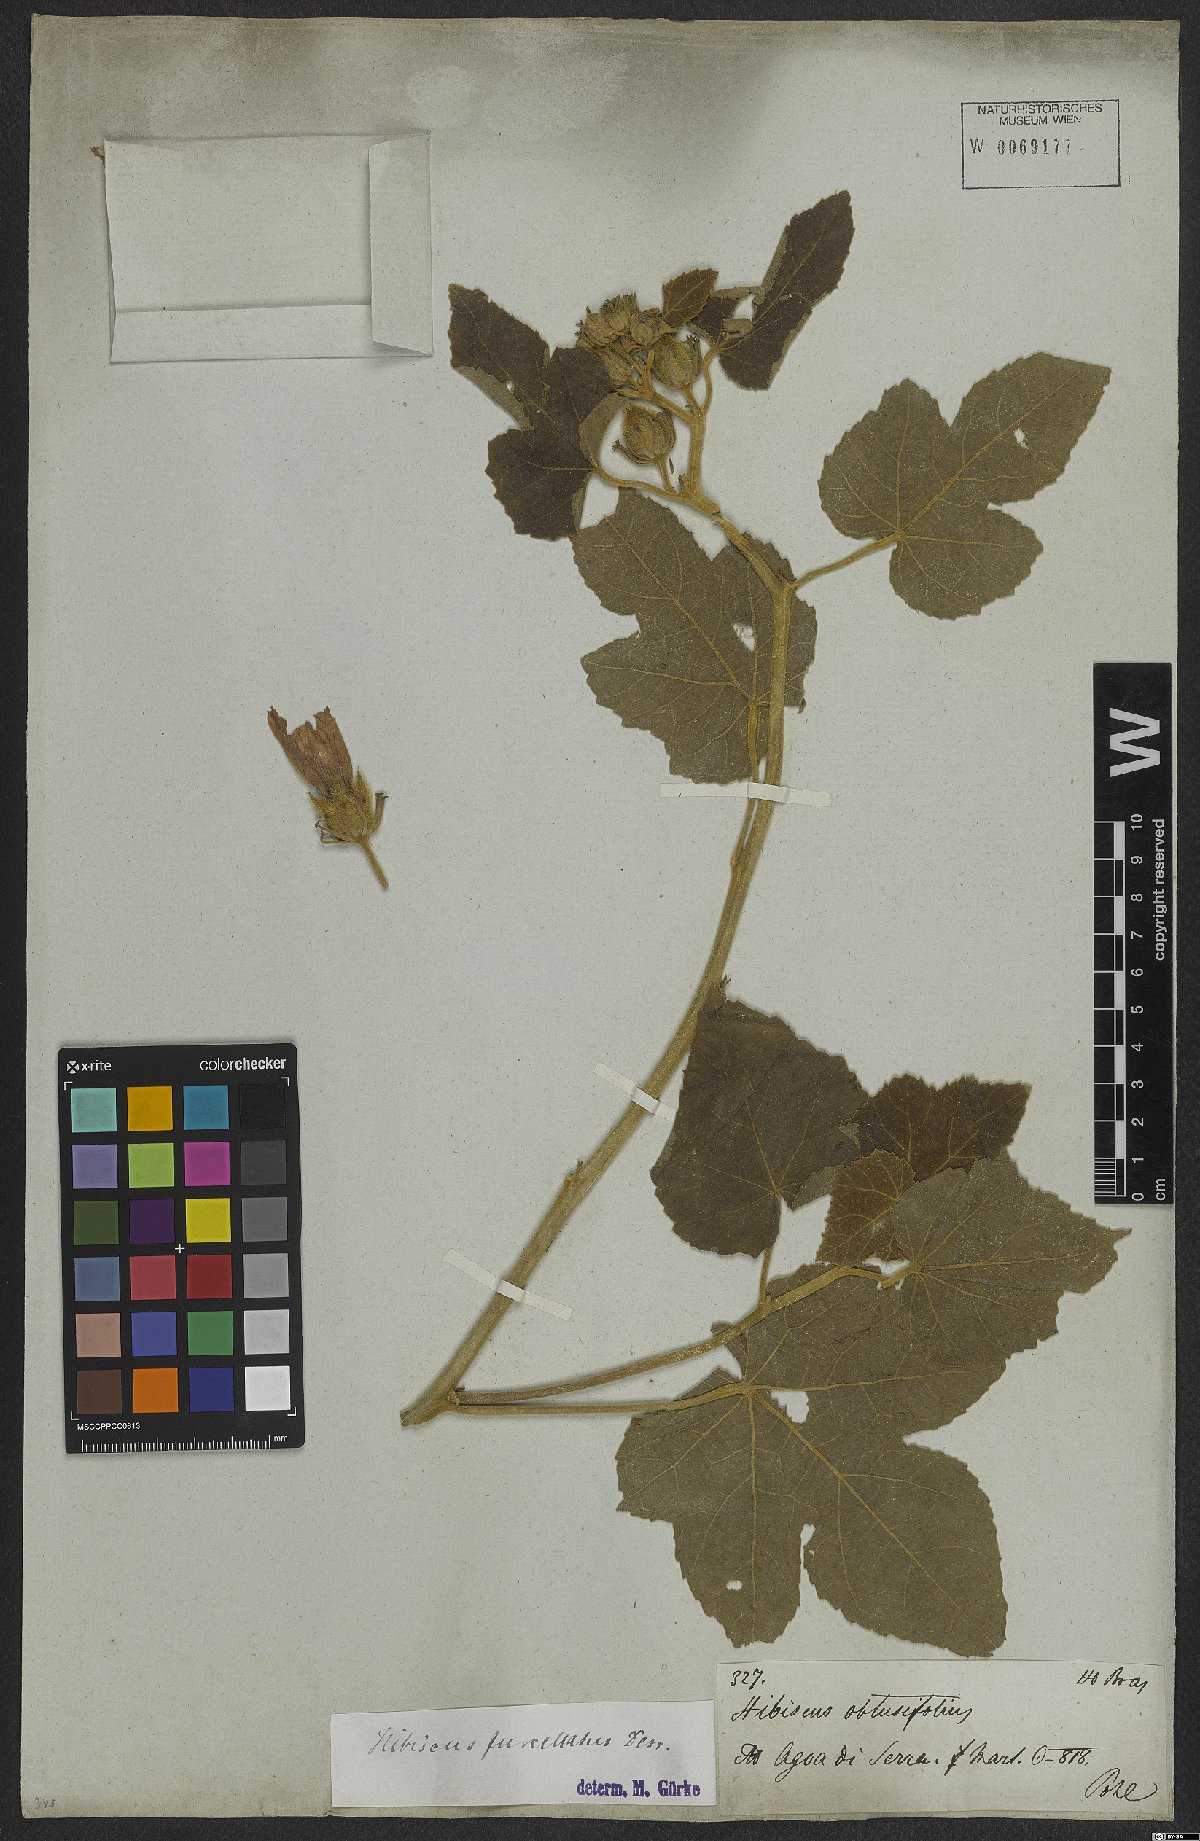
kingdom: Plantae
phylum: Tracheophyta
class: Magnoliopsida
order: Malvales
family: Malvaceae
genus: Hibiscus
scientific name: Hibiscus furcellatus
